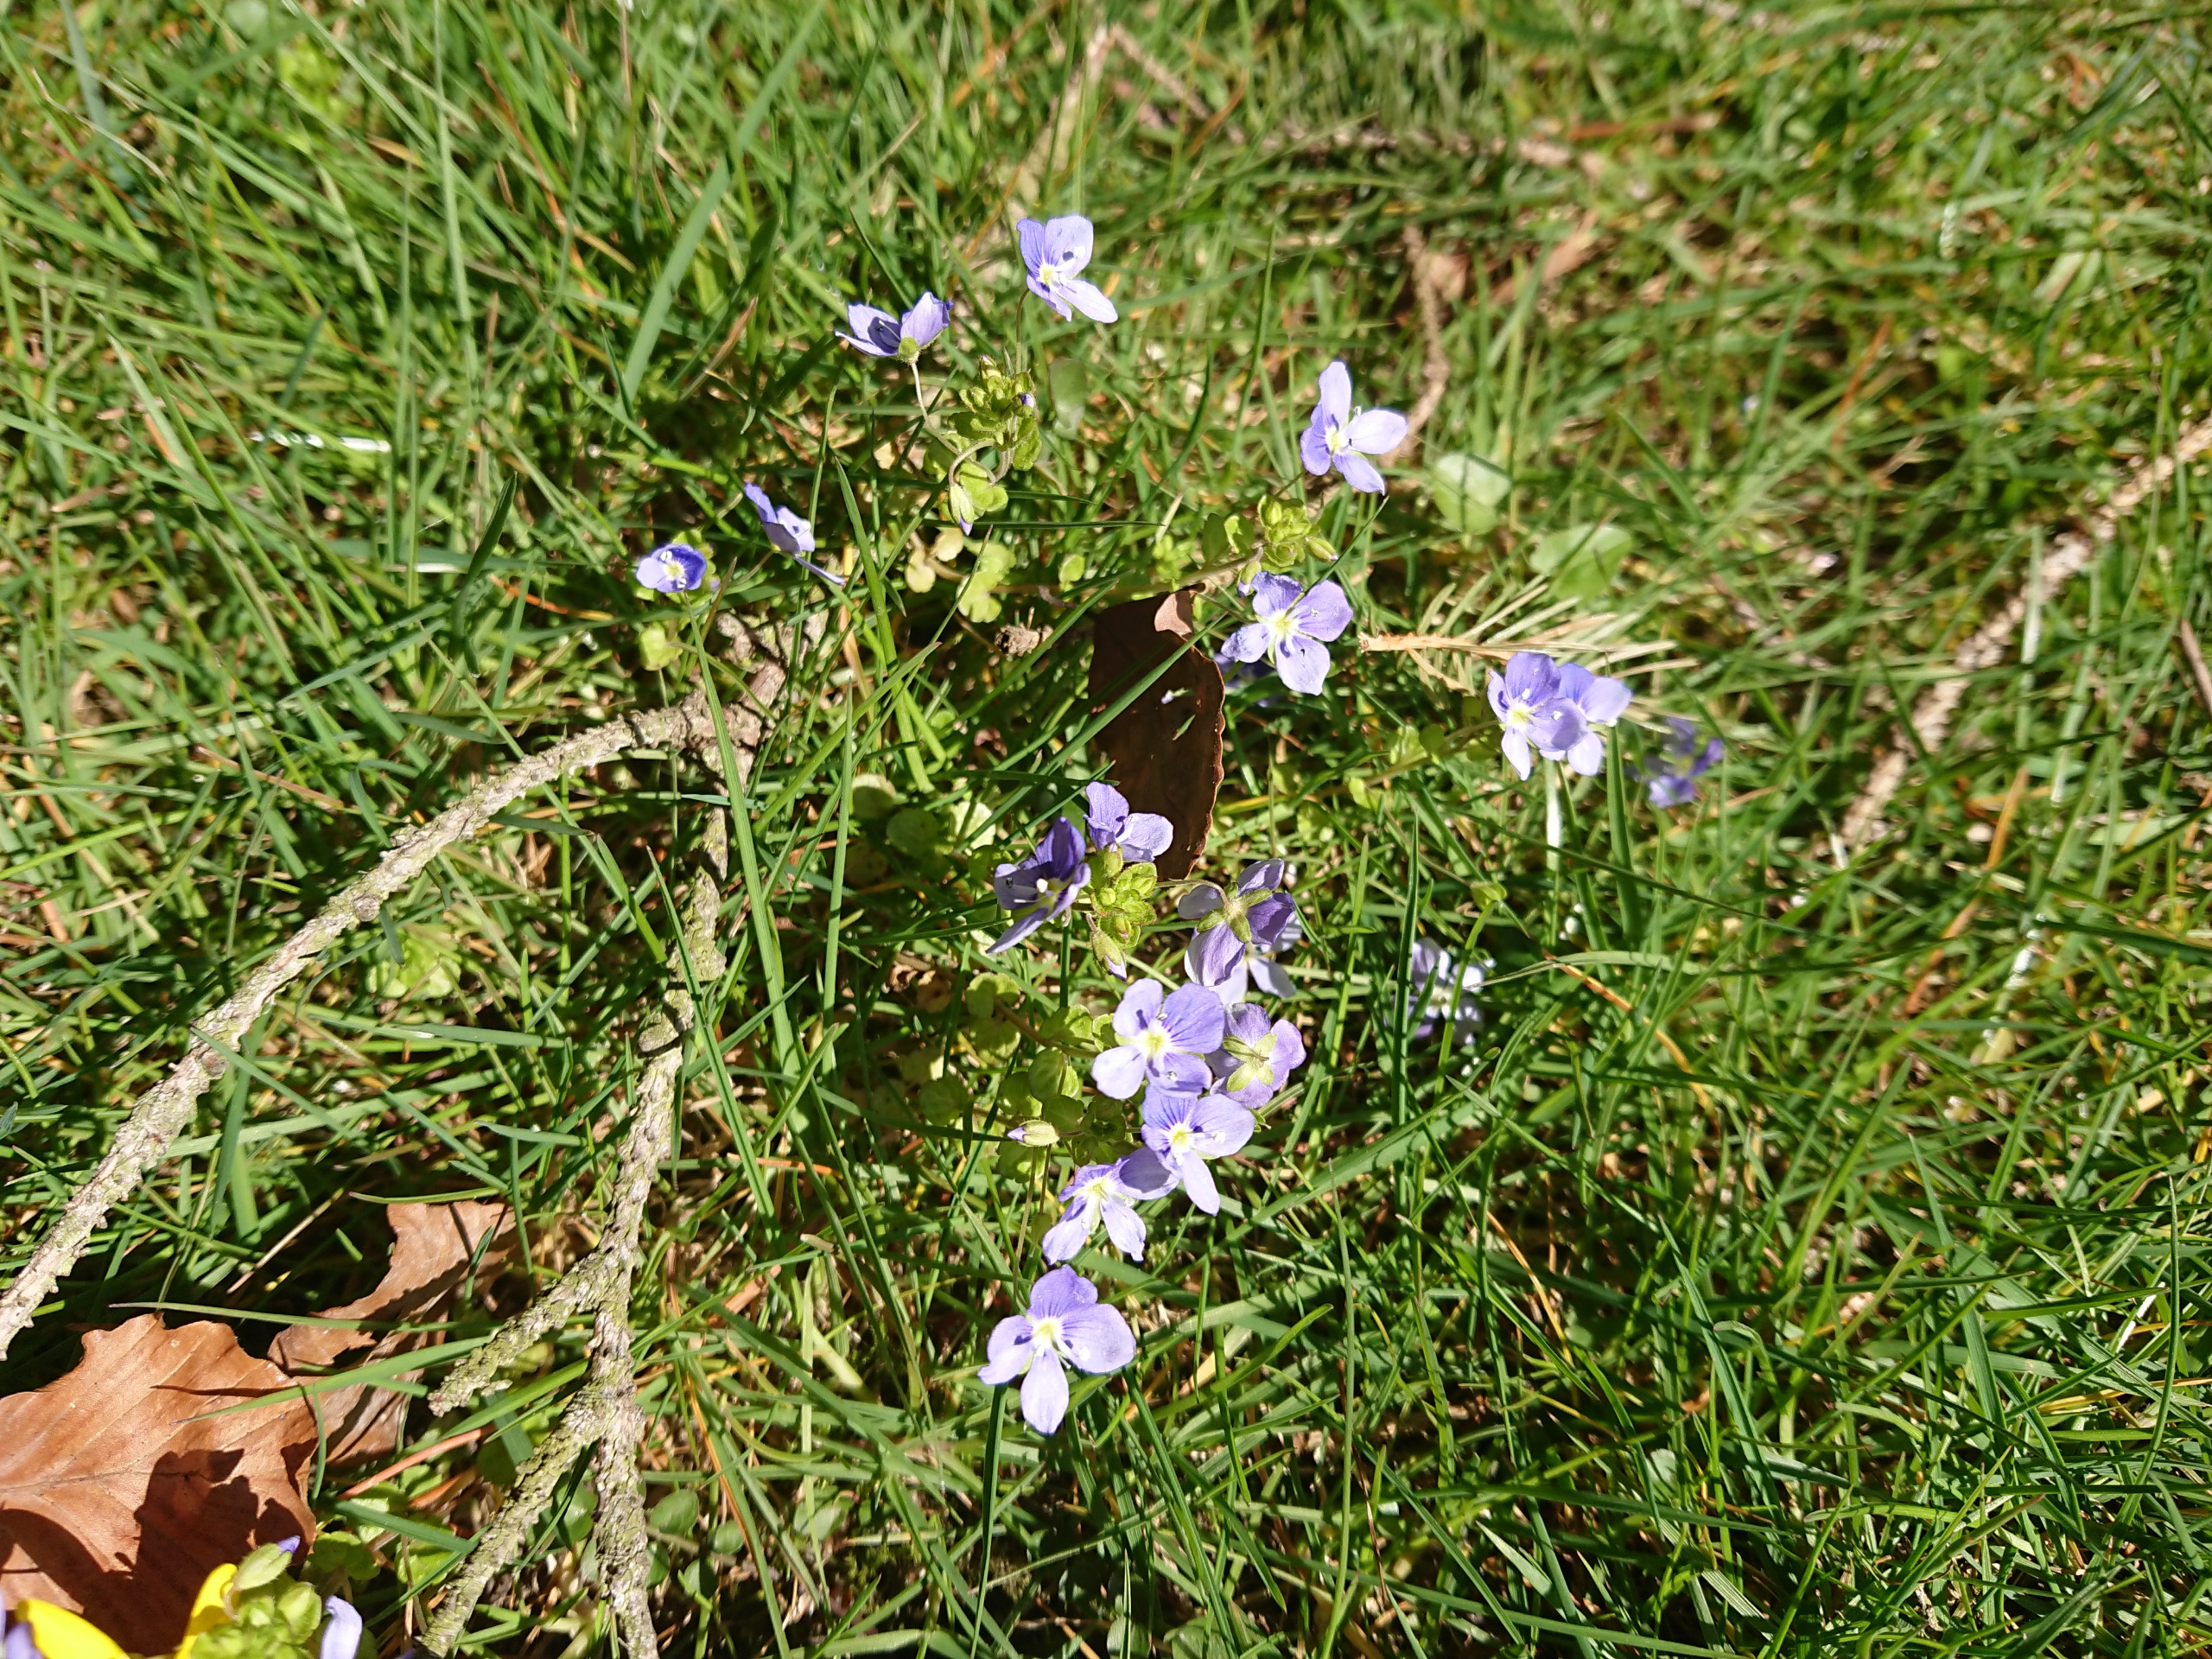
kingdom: Plantae
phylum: Tracheophyta
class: Magnoliopsida
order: Lamiales
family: Plantaginaceae
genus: Veronica
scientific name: Veronica filiformis
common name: Tråd-ærenpris
